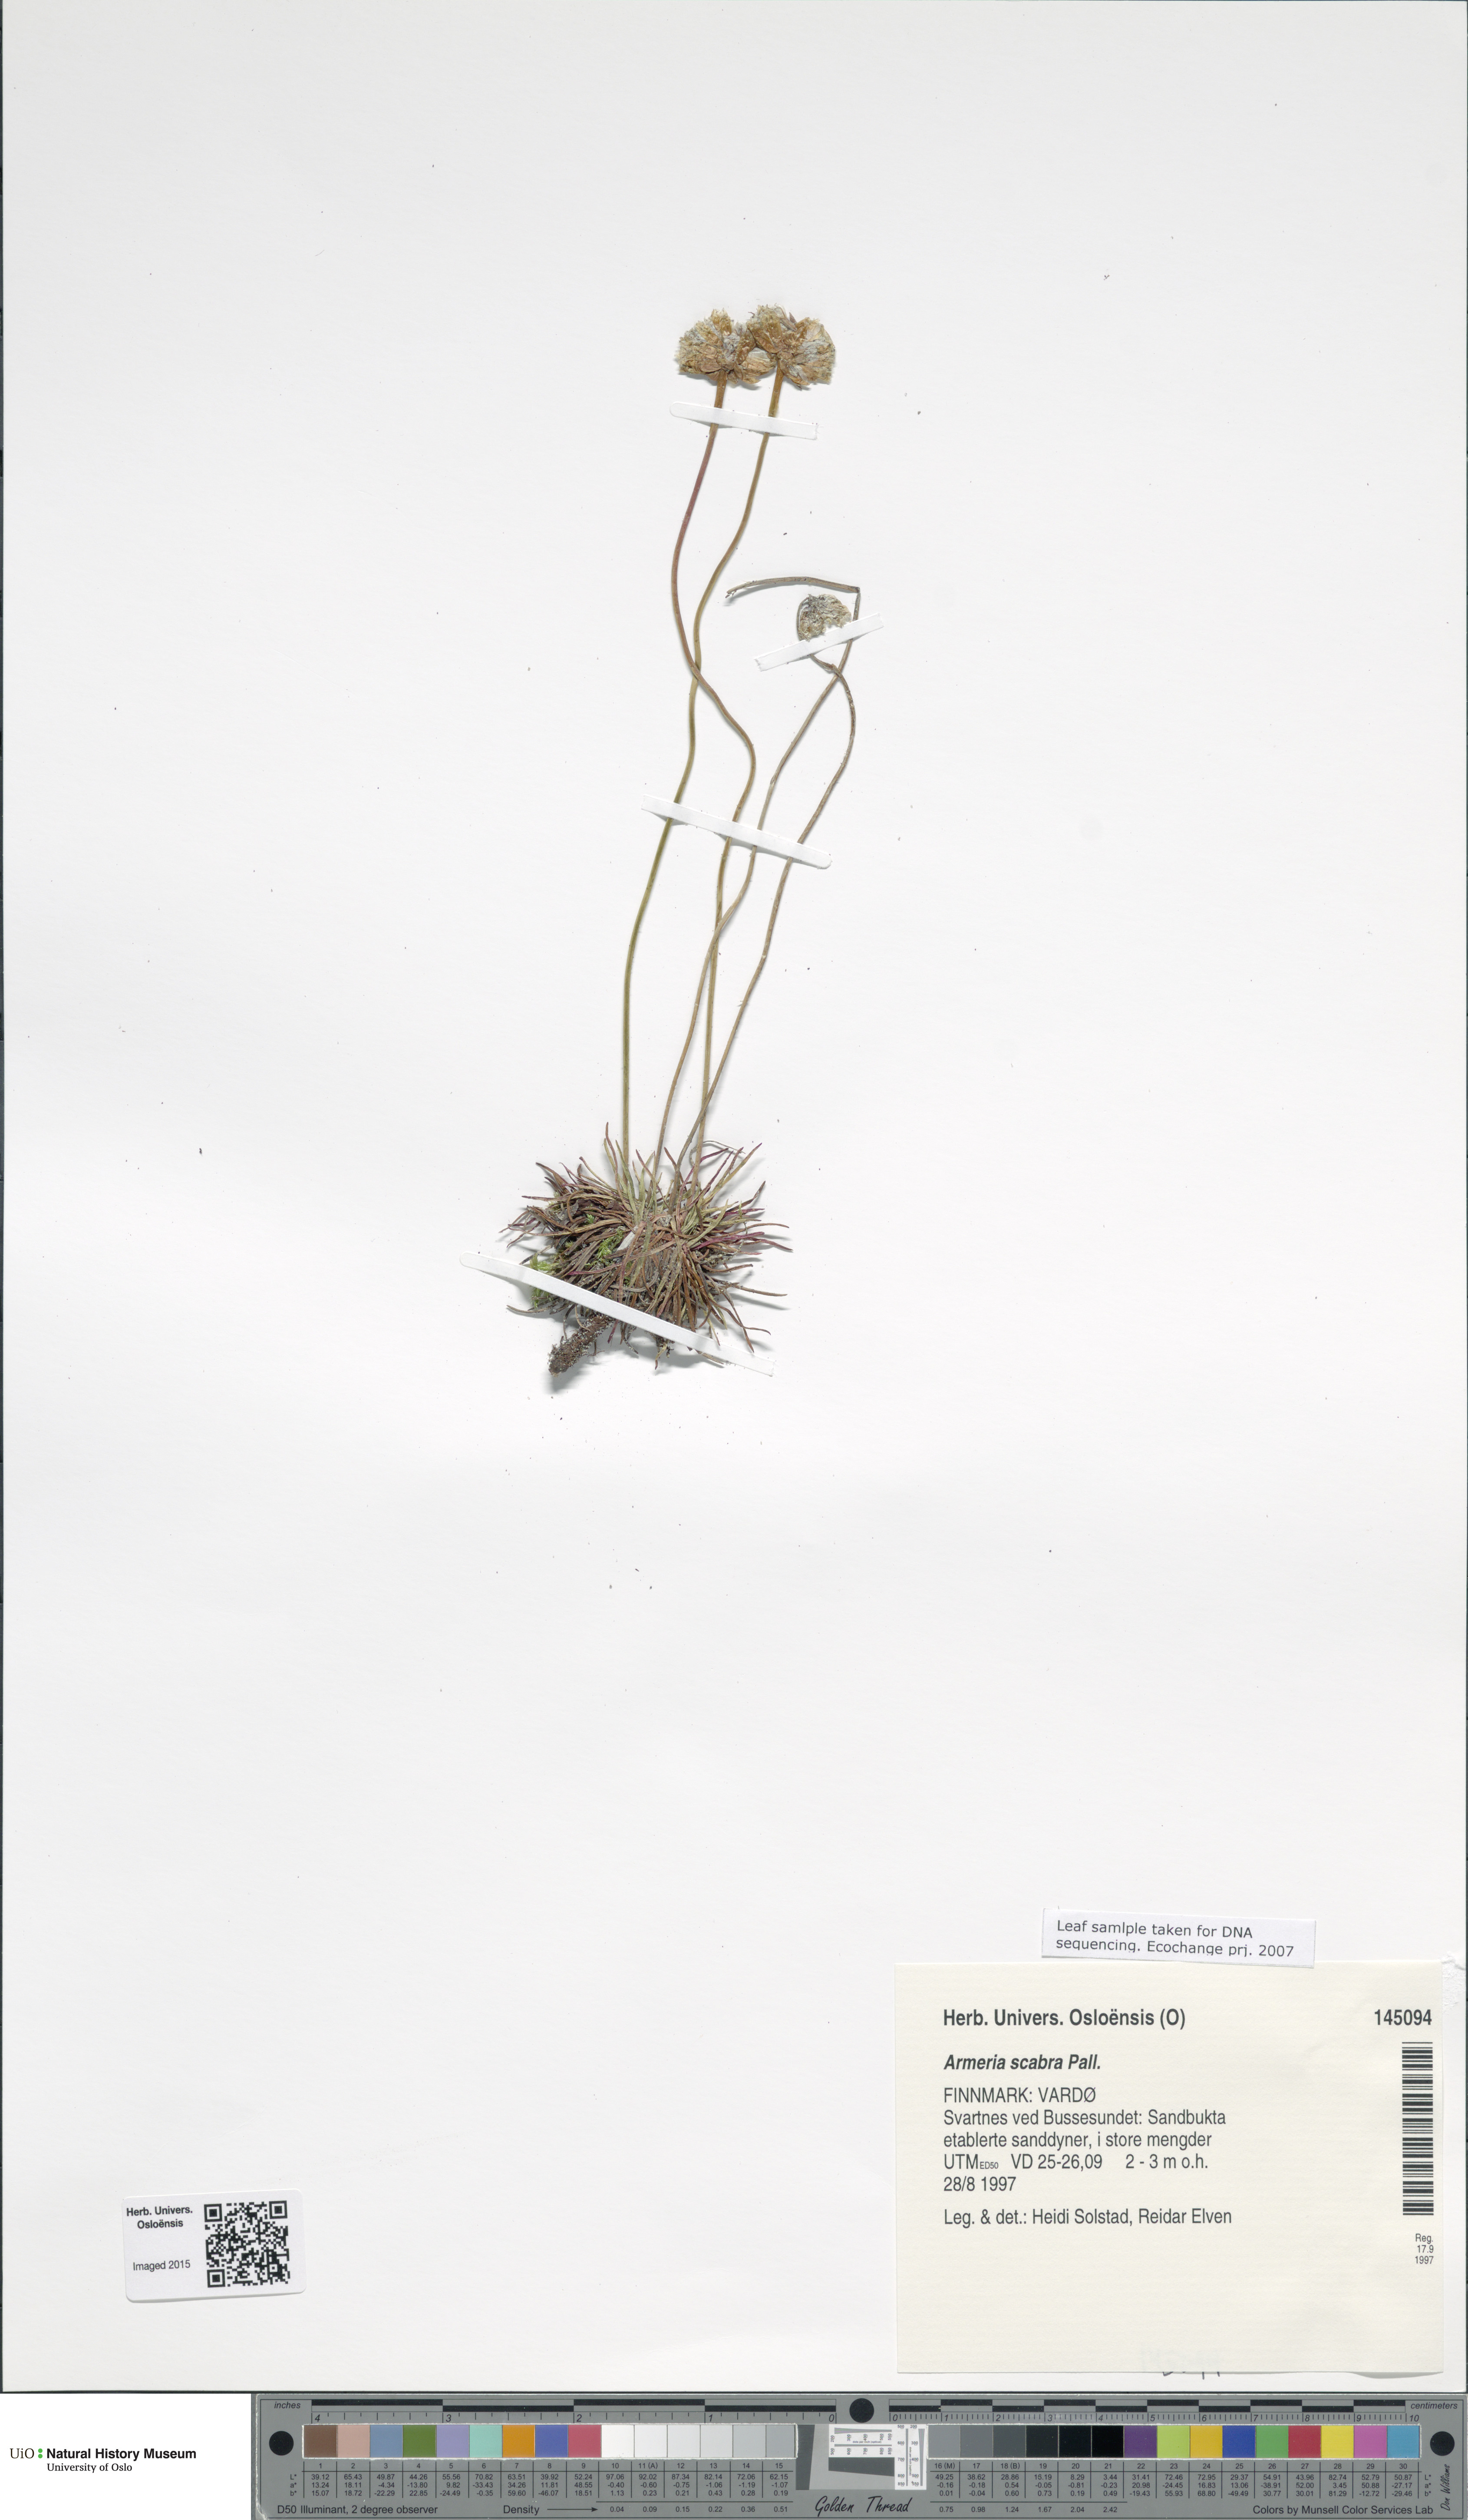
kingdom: Plantae
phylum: Tracheophyta
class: Magnoliopsida
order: Caryophyllales
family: Plumbaginaceae
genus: Armeria
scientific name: Armeria maritima
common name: Thrift
